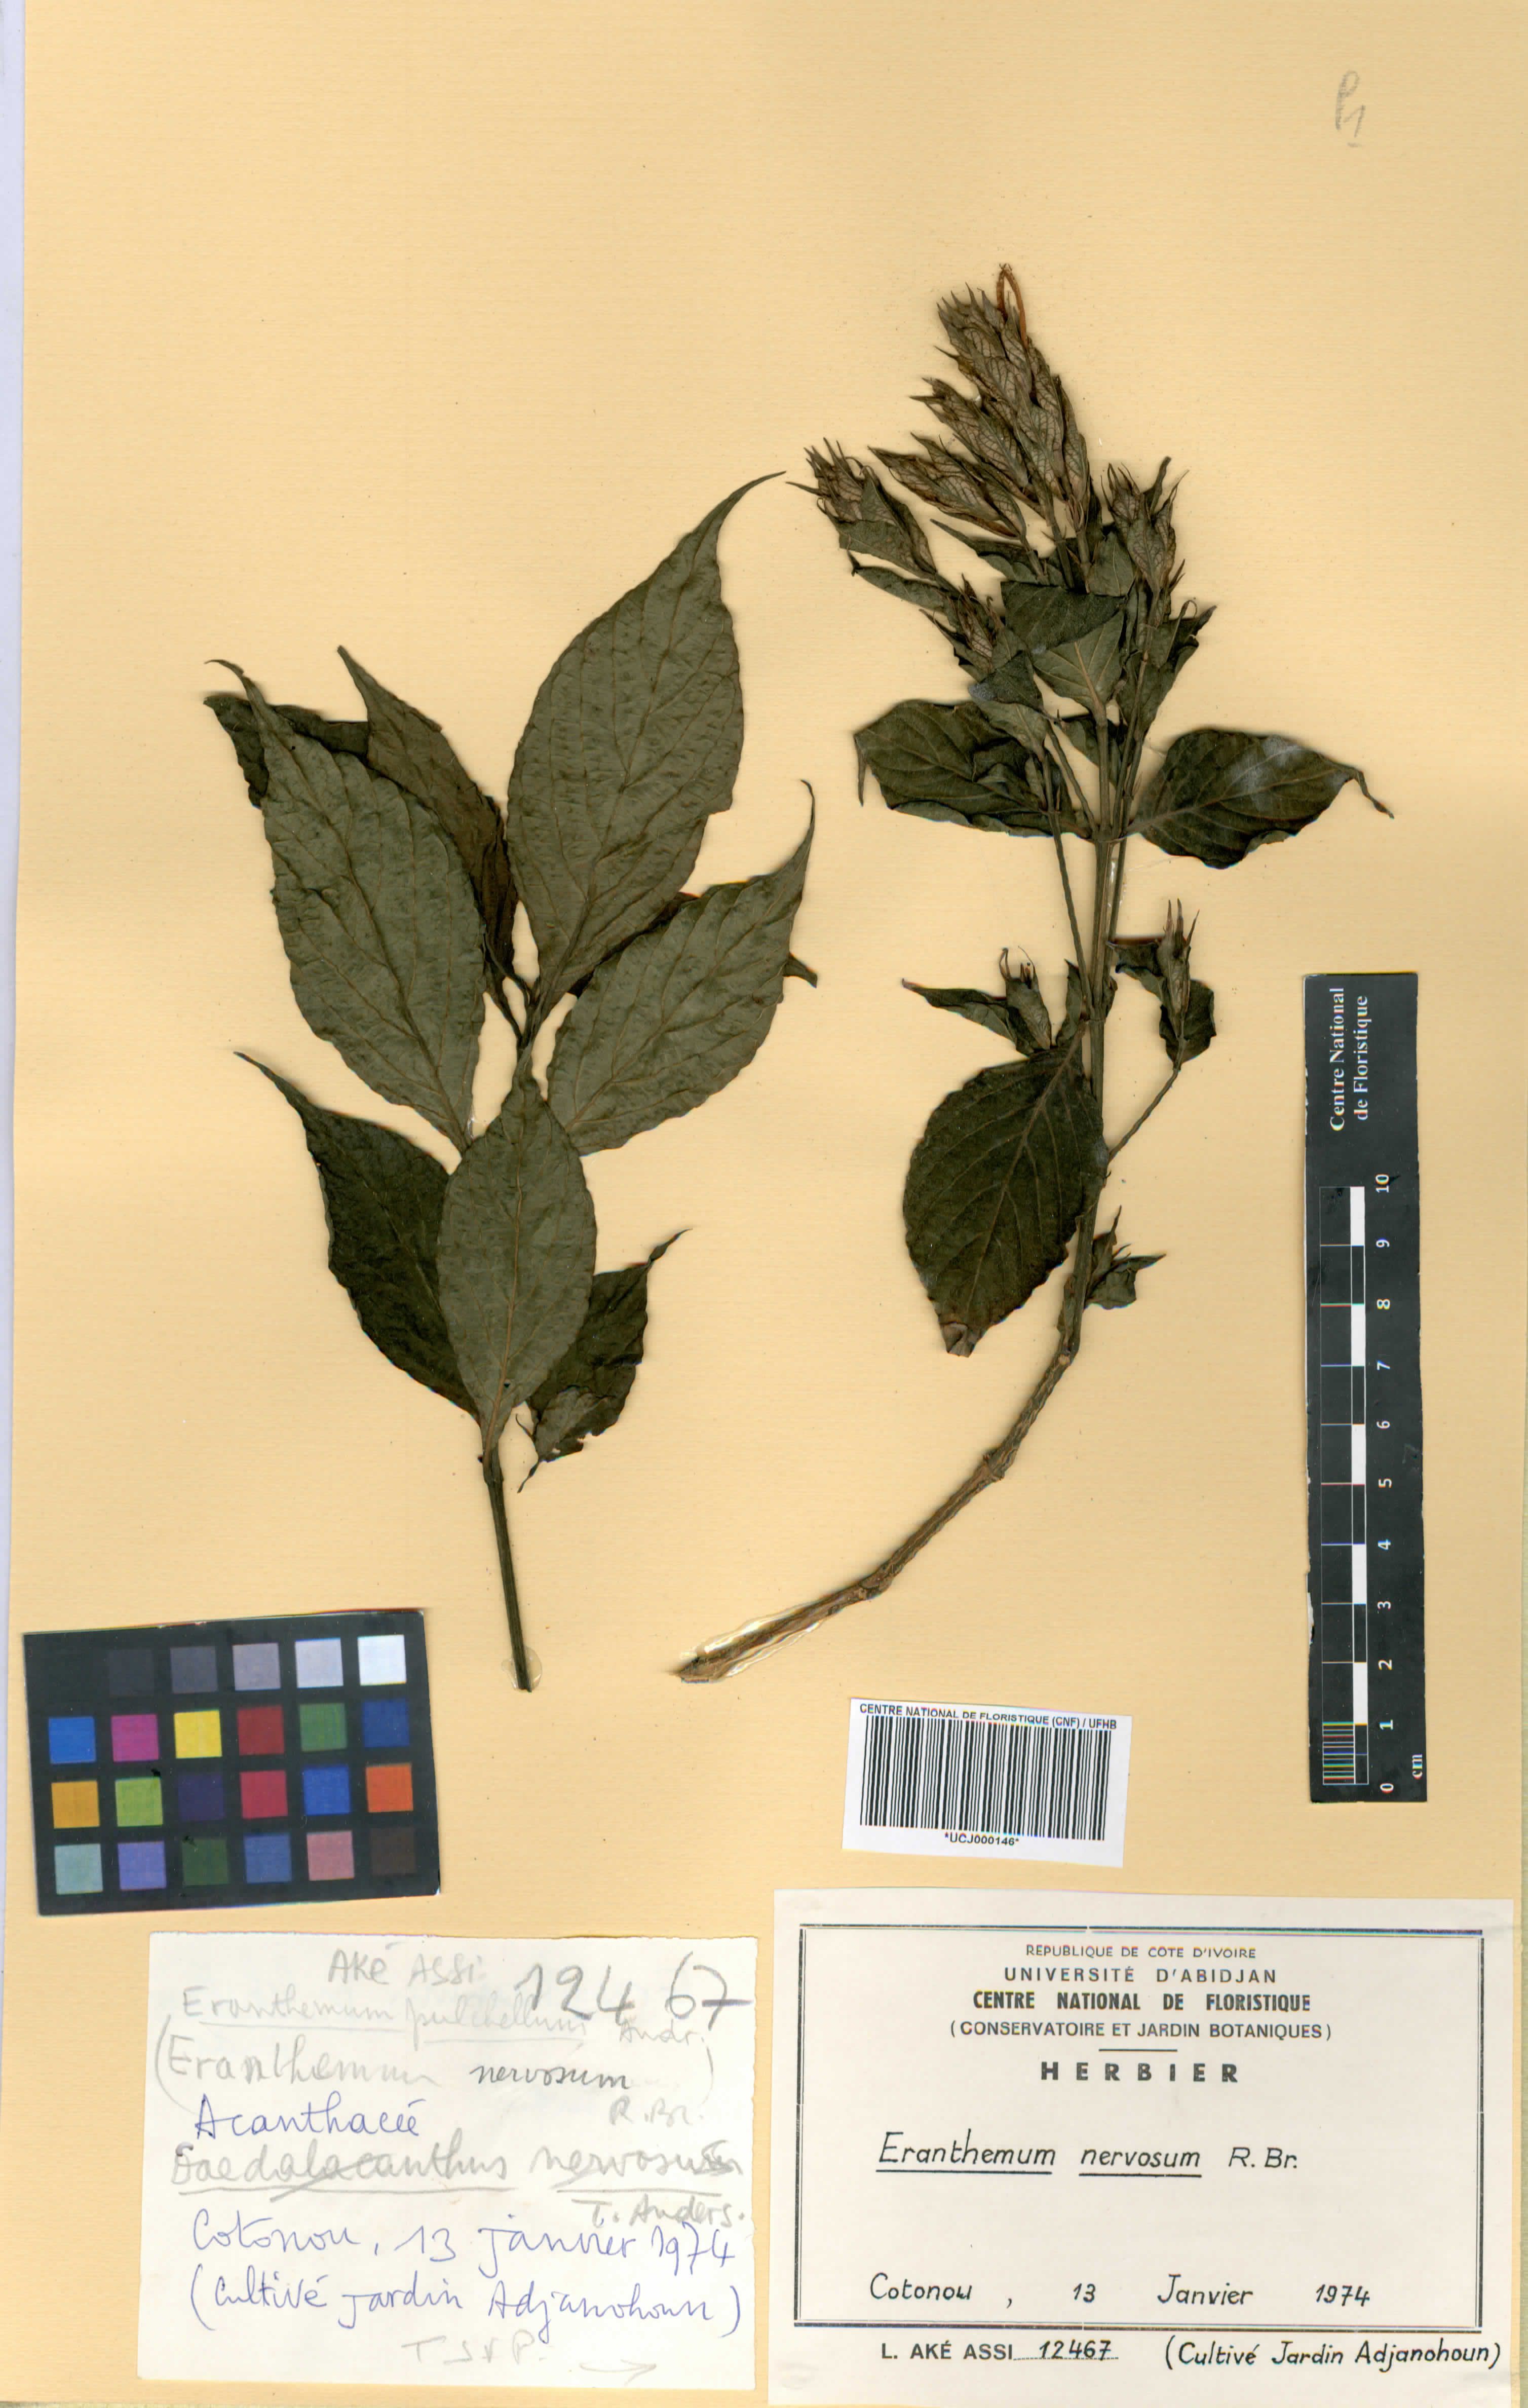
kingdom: Plantae
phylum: Tracheophyta
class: Magnoliopsida
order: Lamiales
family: Acanthaceae
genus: Eranthemum
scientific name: Eranthemum
